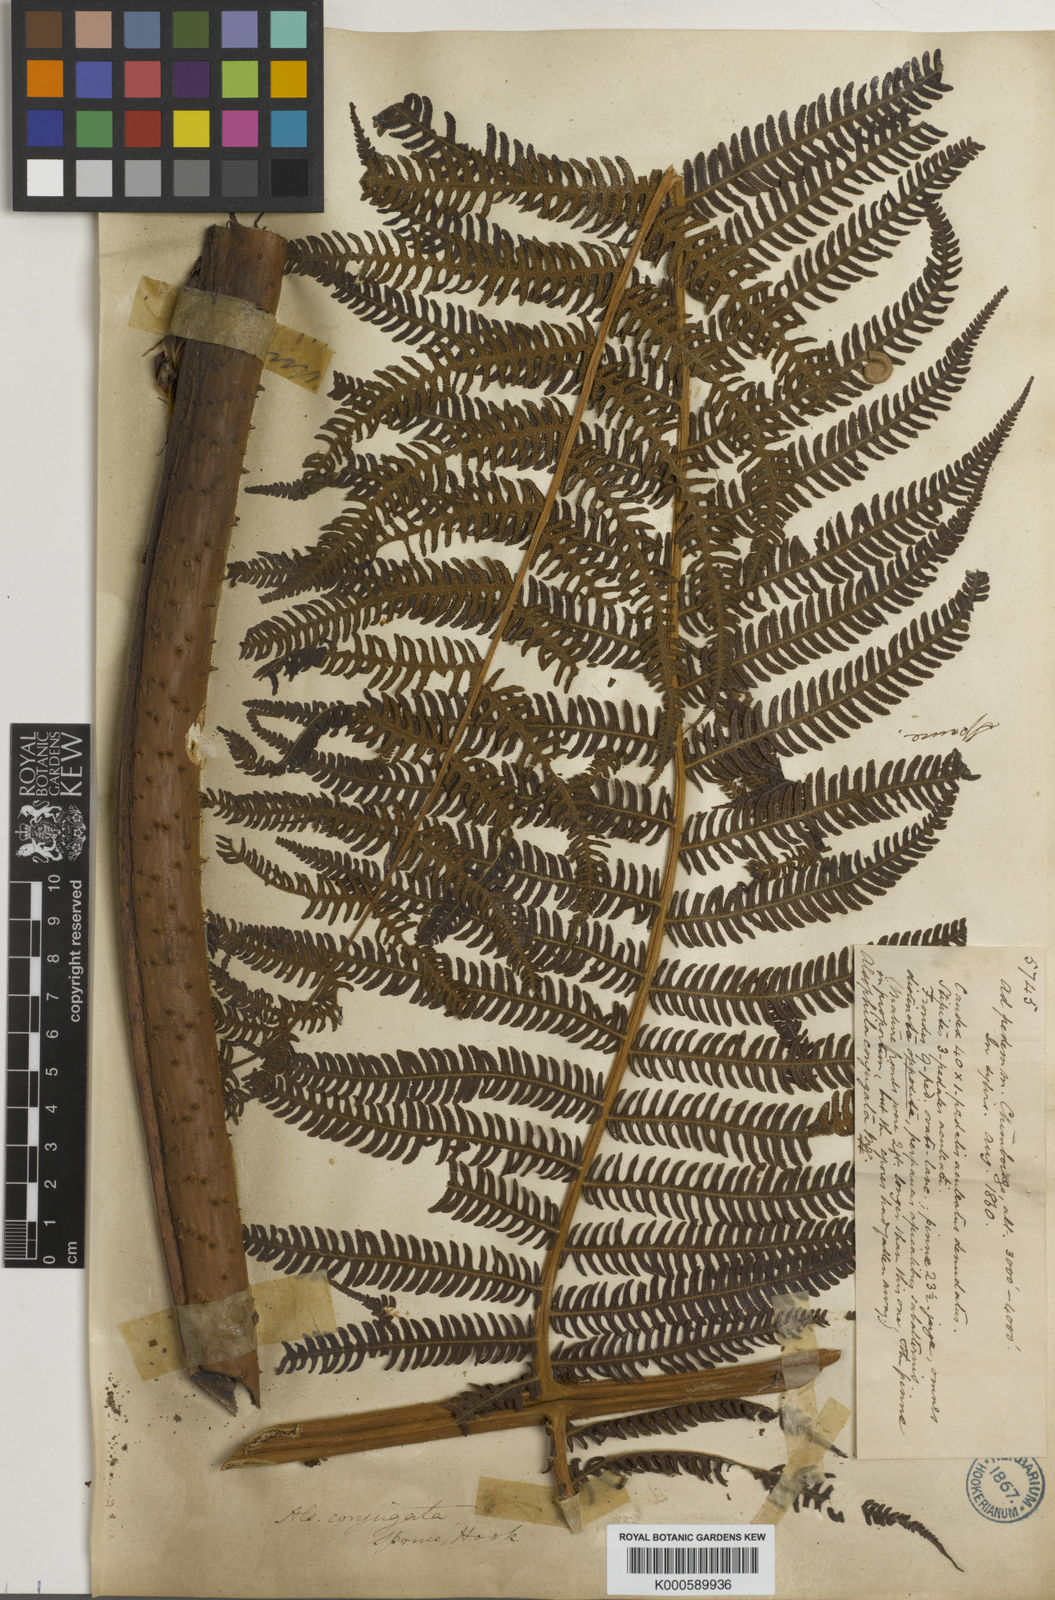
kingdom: Plantae
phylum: Tracheophyta
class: Polypodiopsida
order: Cyatheales
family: Cyatheaceae
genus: Cyathea
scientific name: Cyathea conjugata
